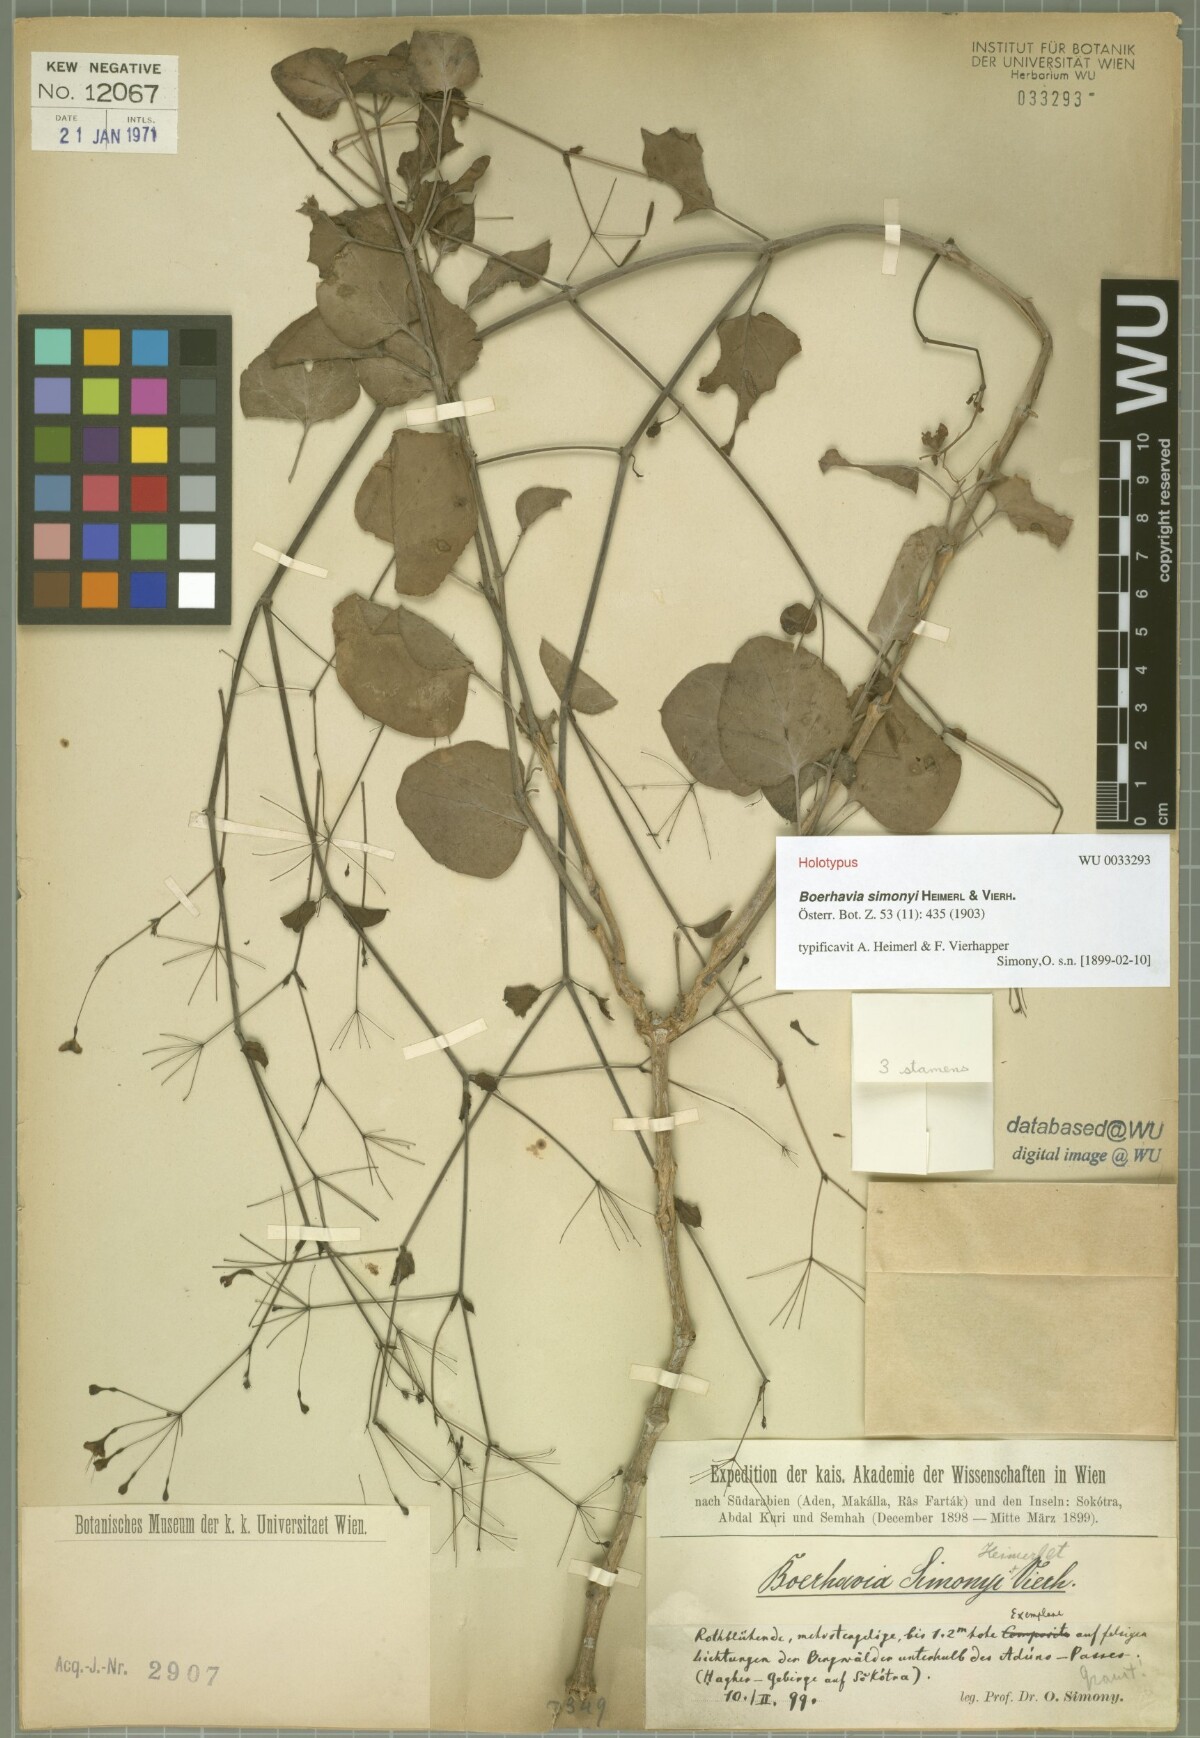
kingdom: Plantae
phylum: Tracheophyta
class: Magnoliopsida
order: Caryophyllales
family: Nyctaginaceae
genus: Commicarpus
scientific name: Commicarpus simonyi
